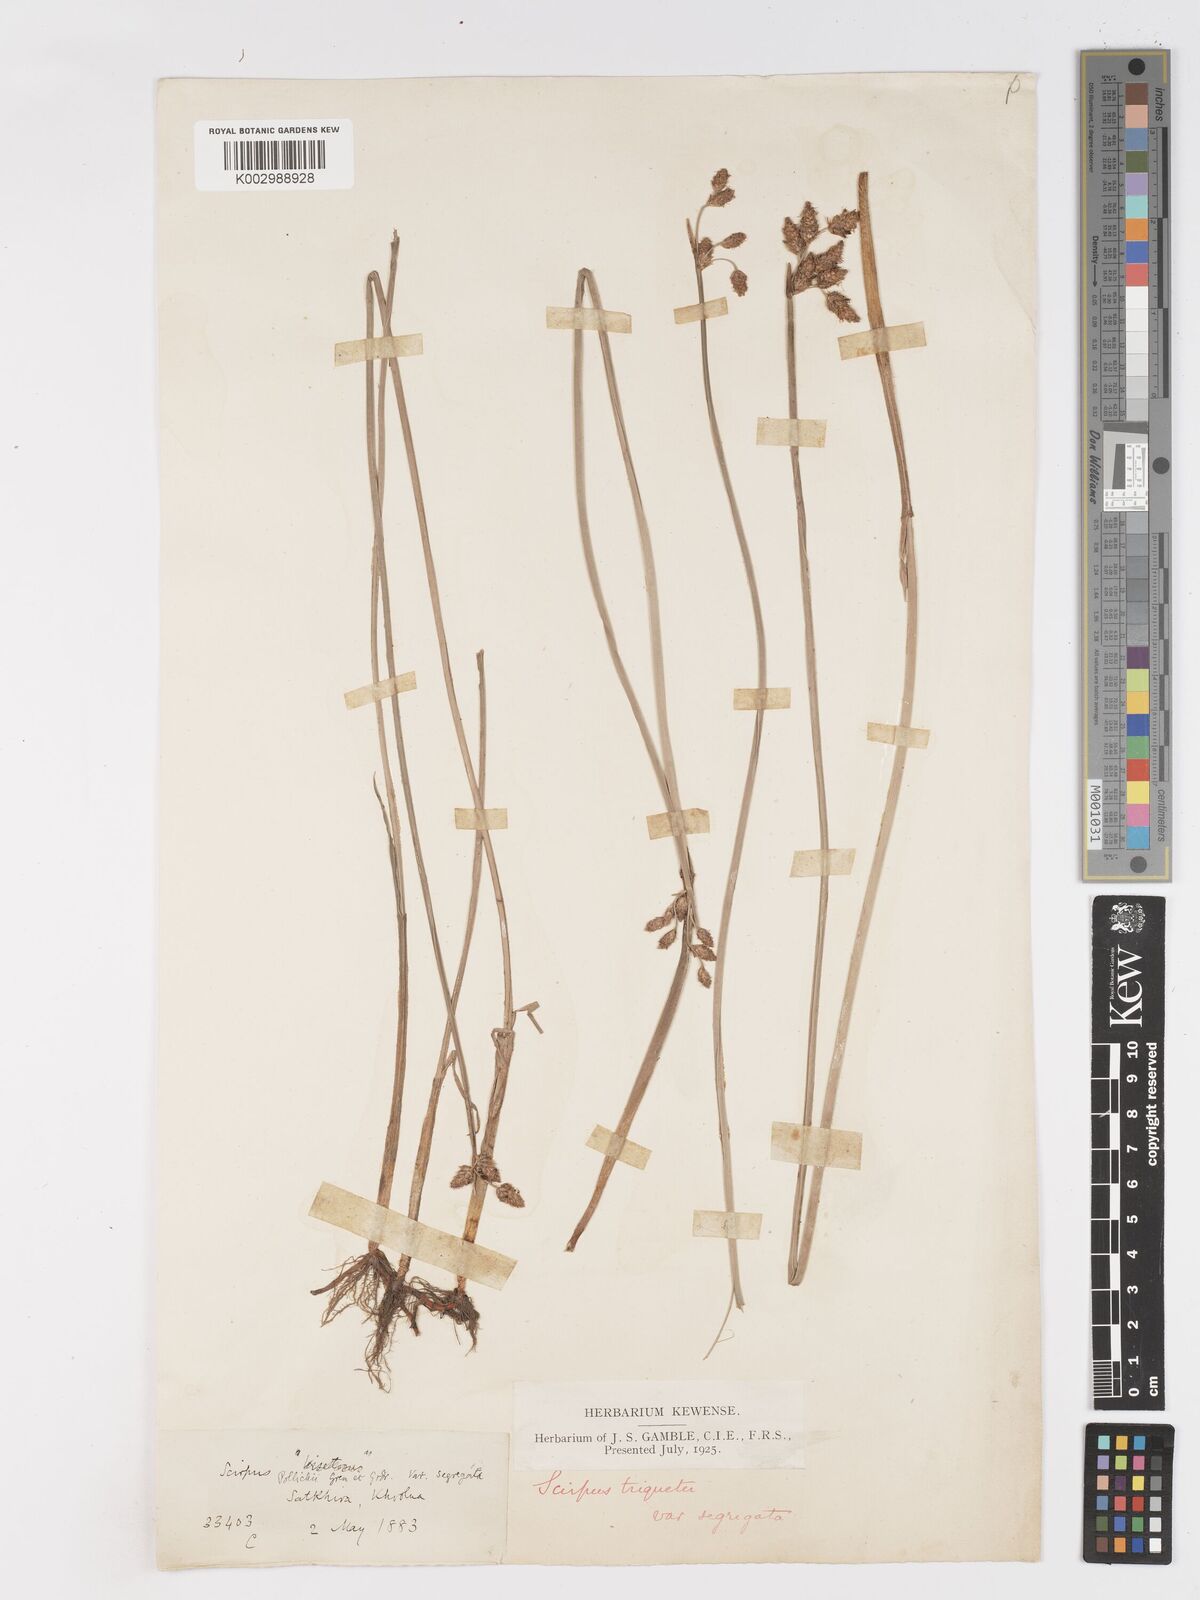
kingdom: Plantae
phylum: Tracheophyta
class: Liliopsida
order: Poales
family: Cyperaceae
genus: Schoenoplectus
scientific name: Schoenoplectus triqueter
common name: Triangular club-rush
